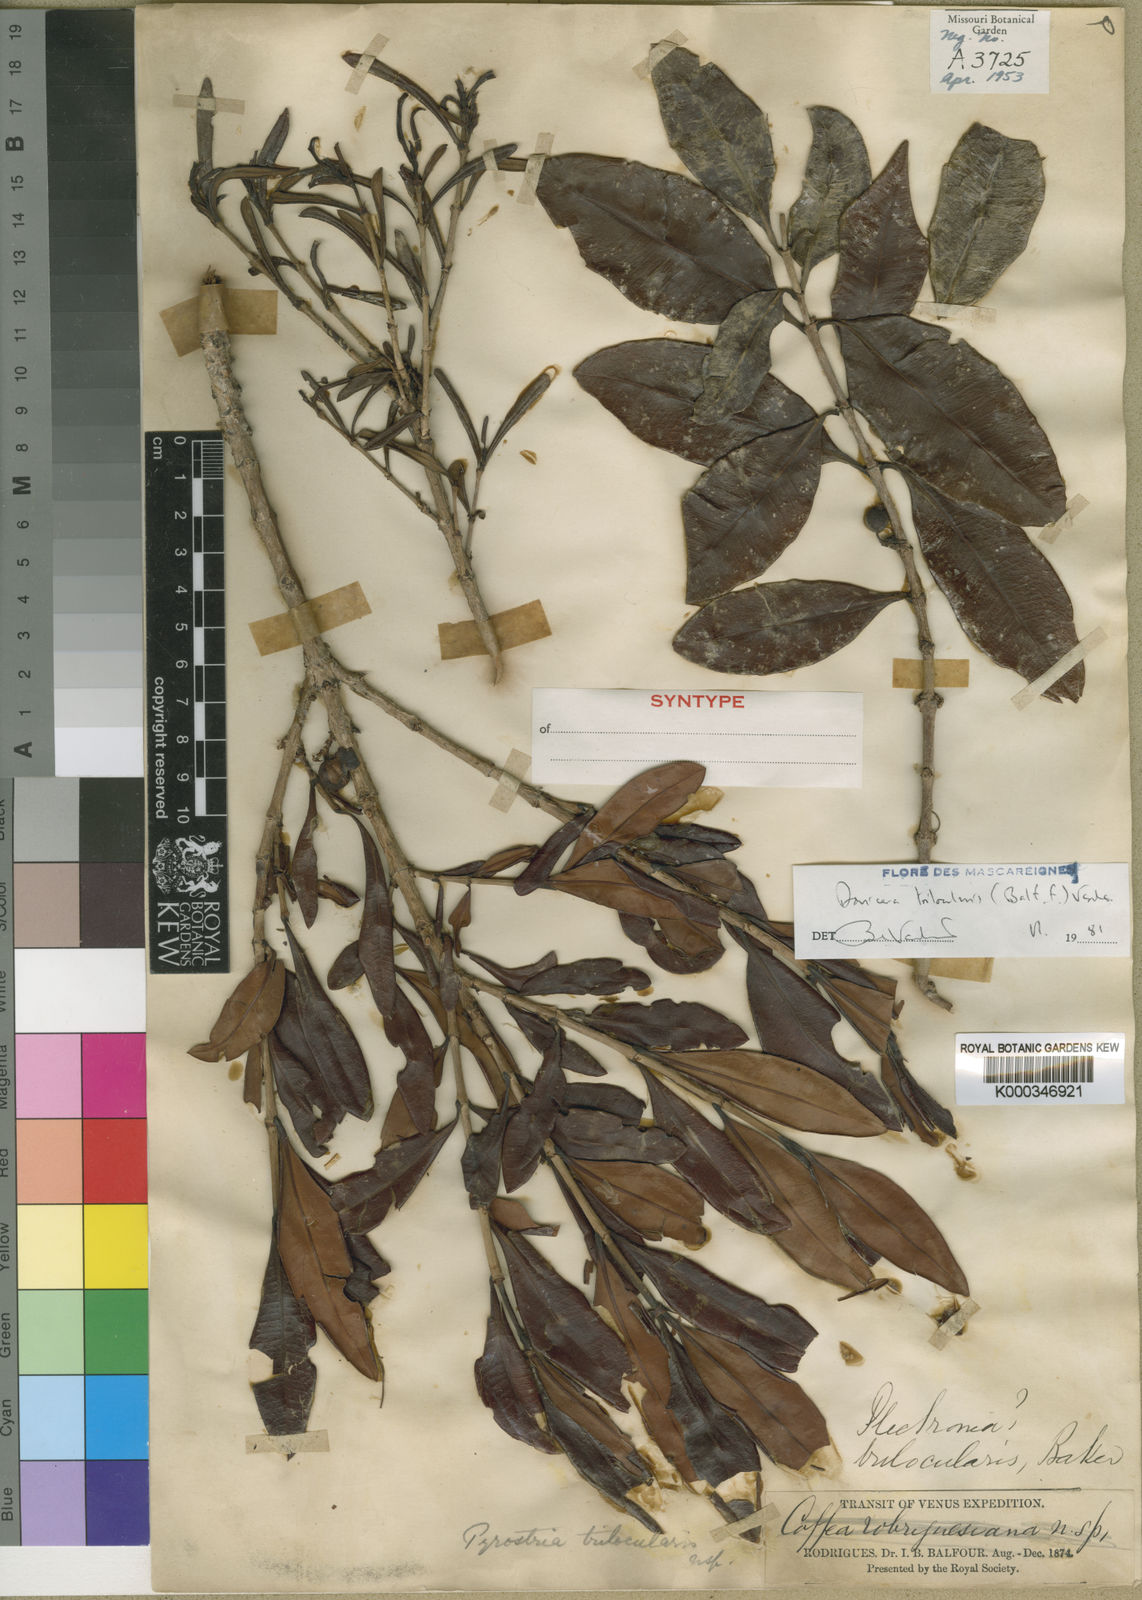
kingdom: Plantae
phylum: Tracheophyta
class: Magnoliopsida
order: Gentianales
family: Rubiaceae
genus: Ixora
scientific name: Ixora trilocularis
